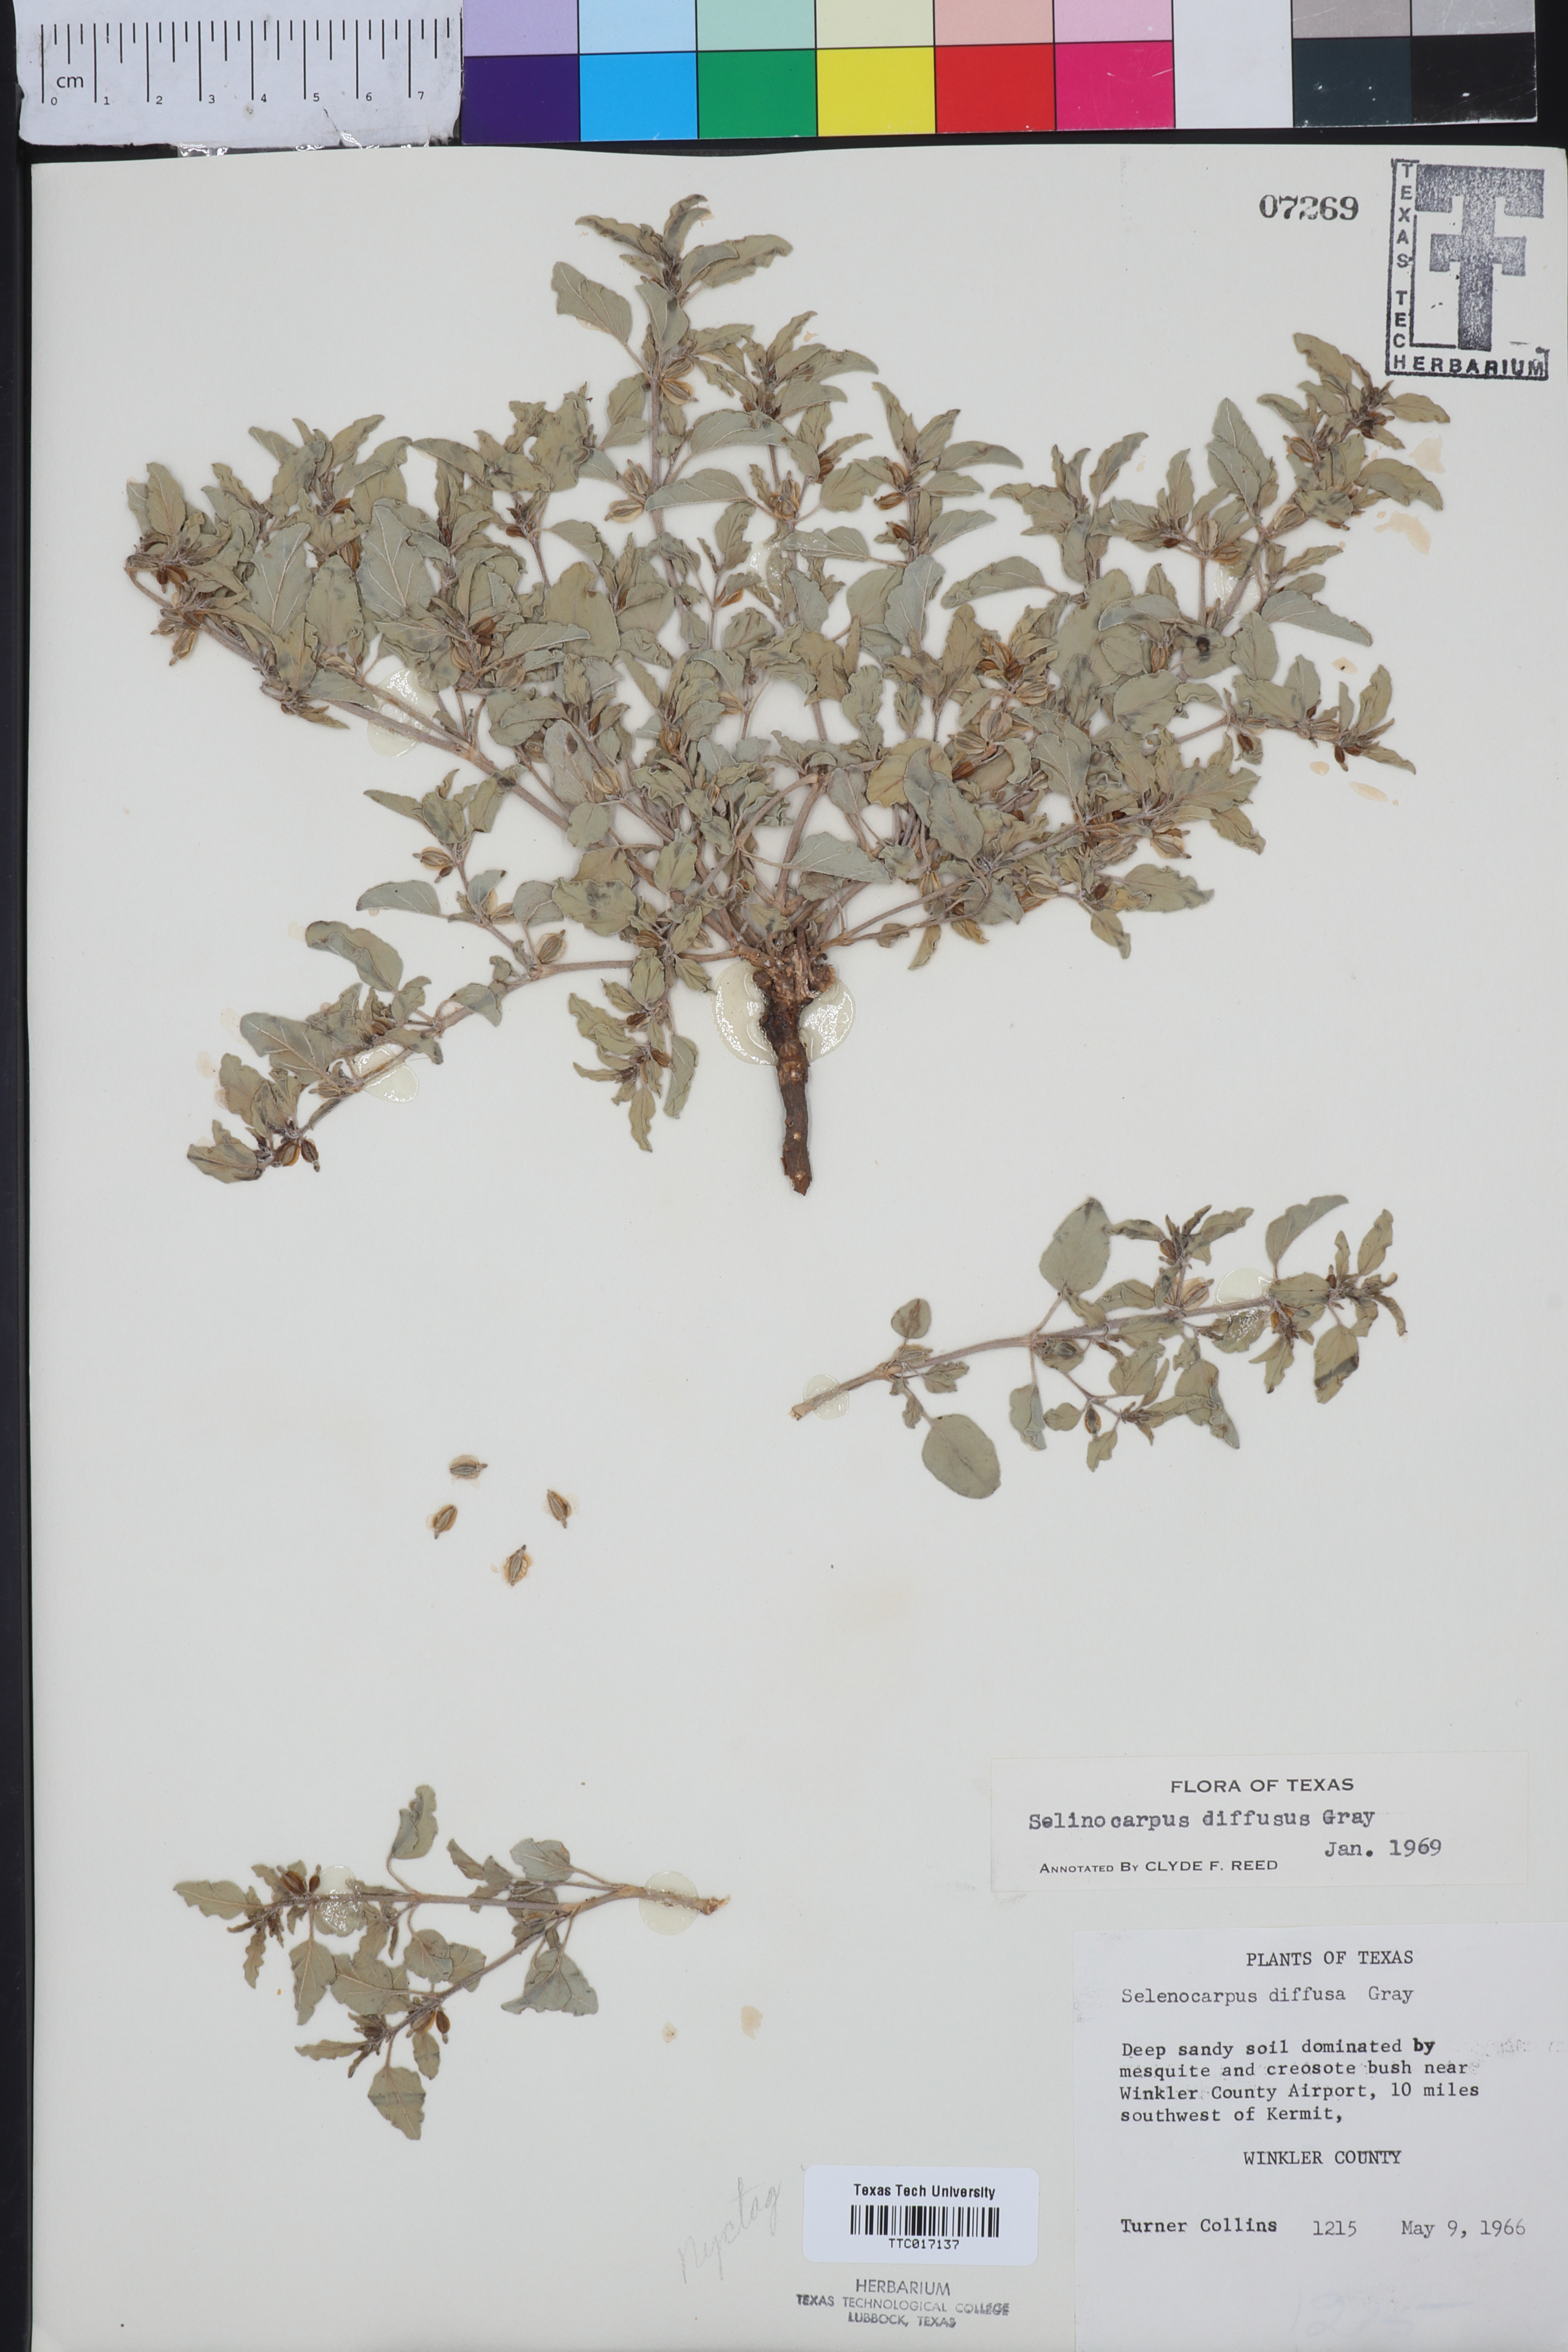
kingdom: Plantae
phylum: Tracheophyta
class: Magnoliopsida
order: Caryophyllales
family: Nyctaginaceae
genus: Acleisanthes
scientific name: Acleisanthes diffusa
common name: Spreading moonpod
